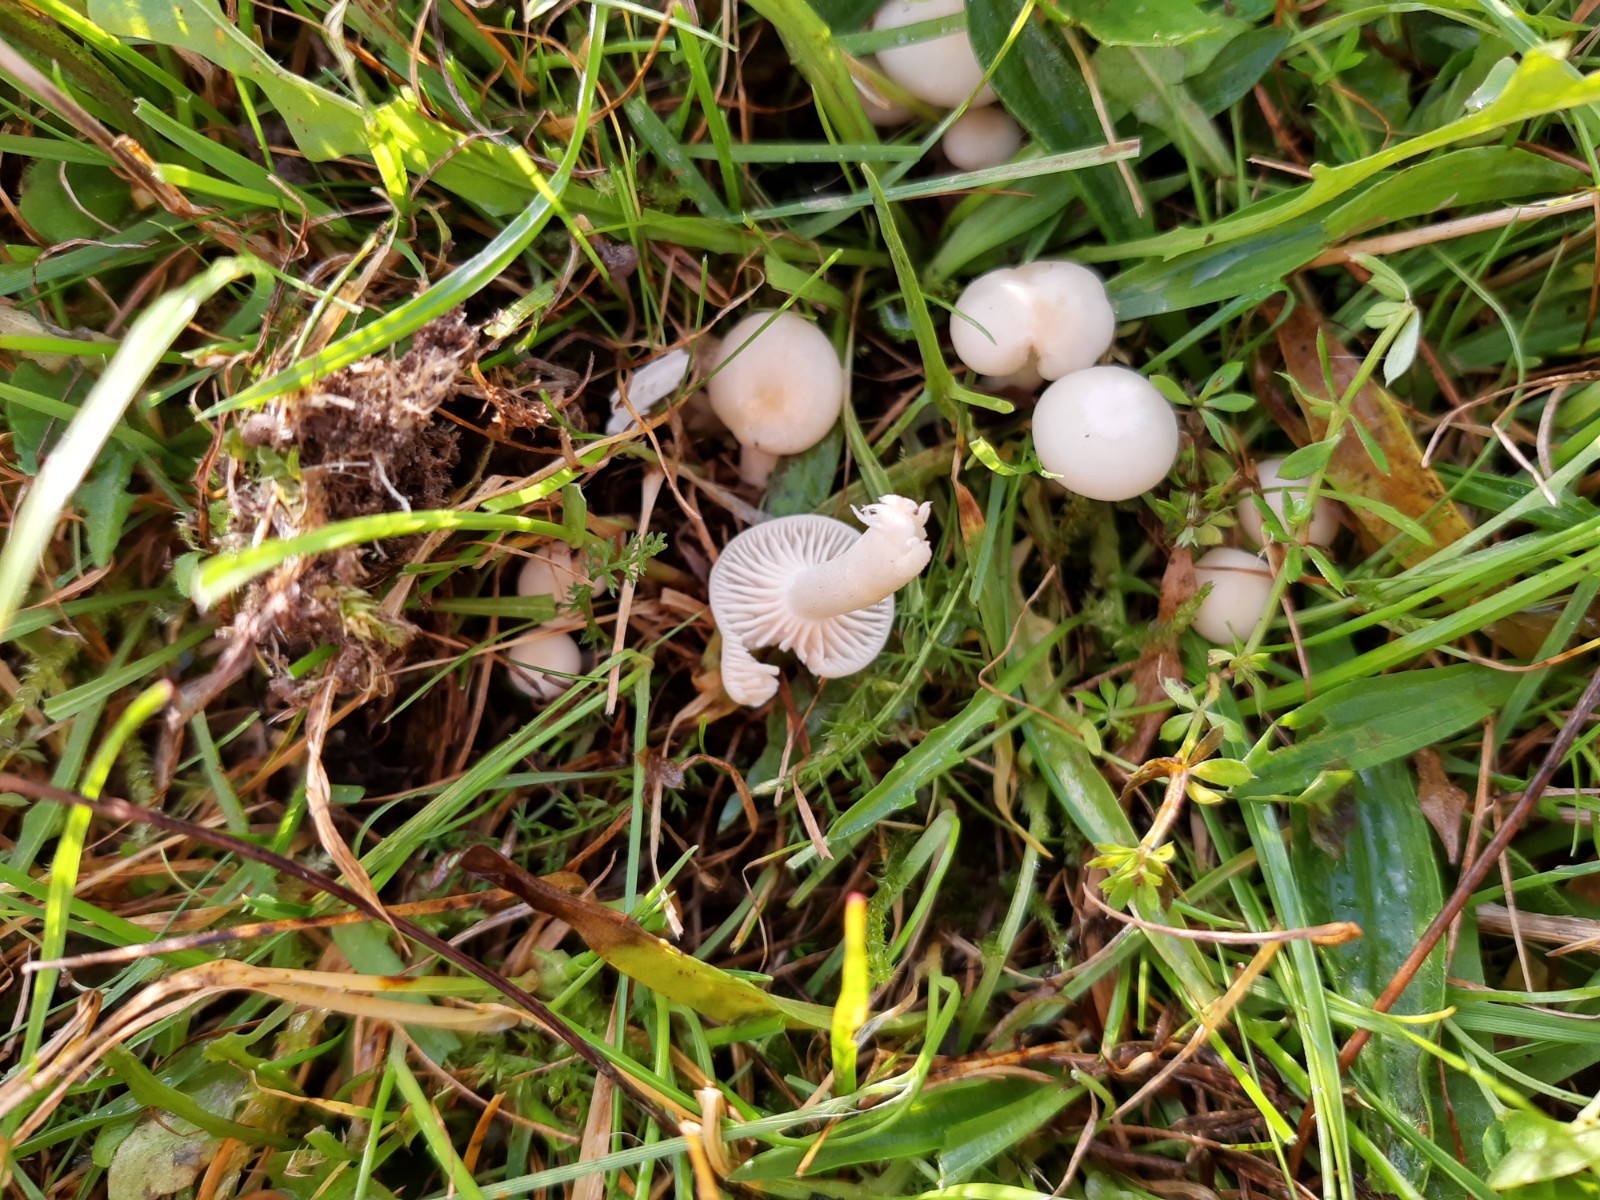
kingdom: Fungi
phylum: Basidiomycota
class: Agaricomycetes
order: Agaricales
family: Hygrophoraceae
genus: Cuphophyllus
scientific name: Cuphophyllus virgineus
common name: snehvid vokshat
